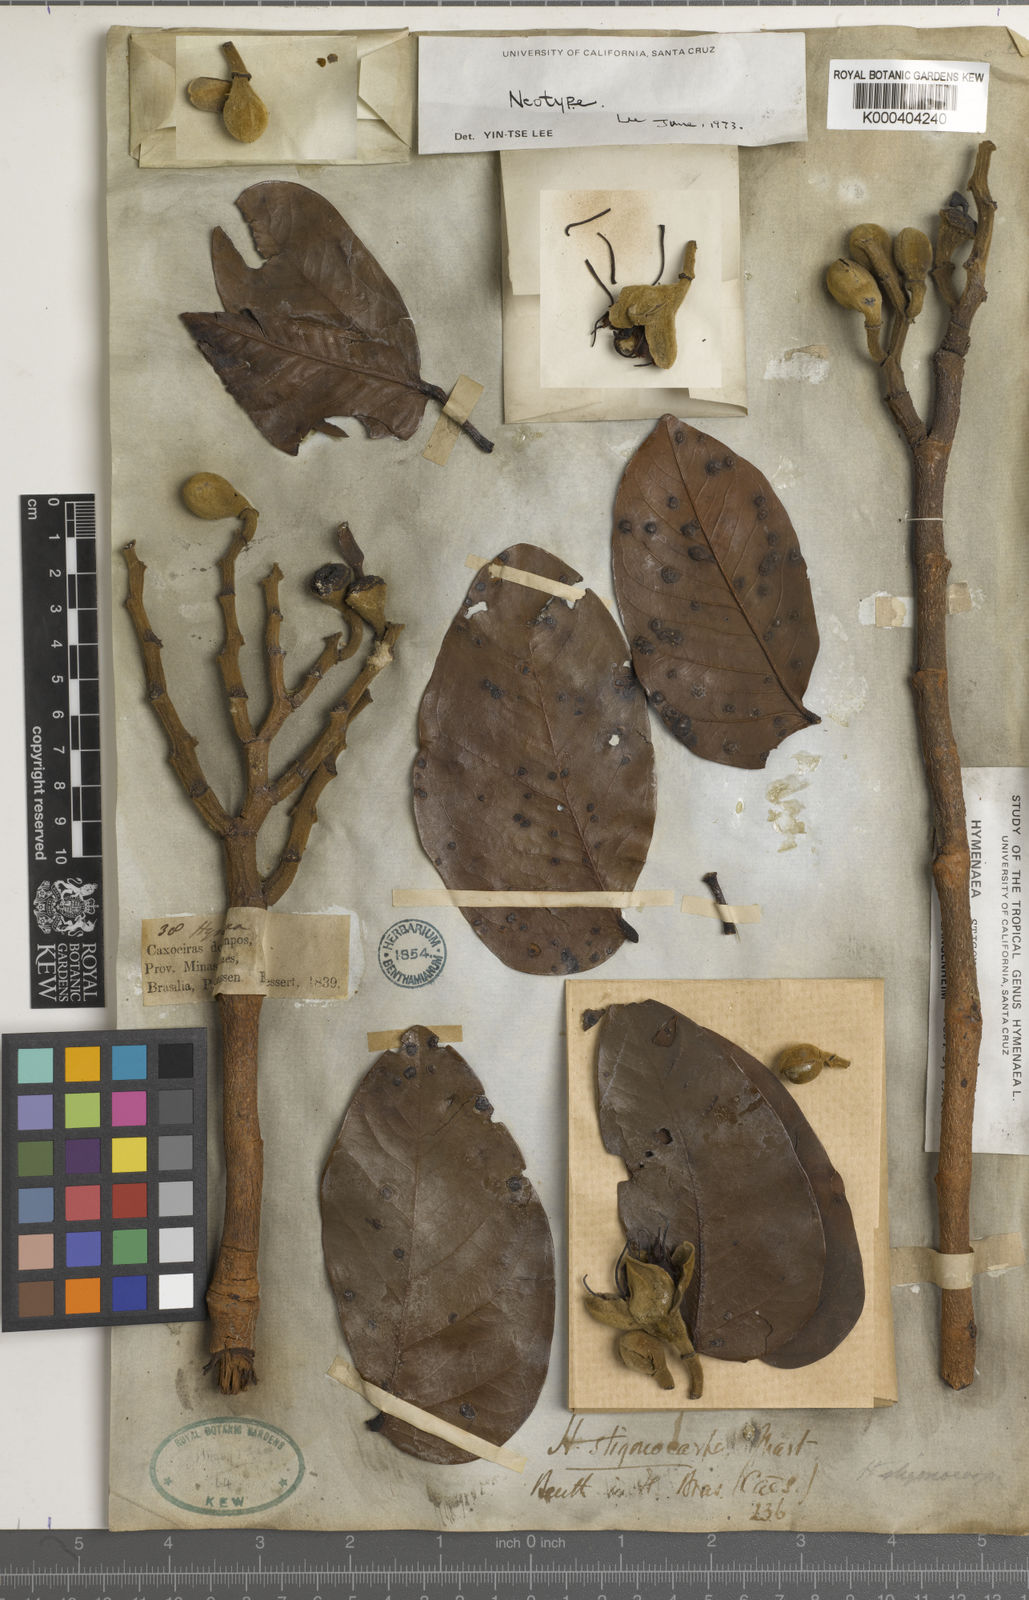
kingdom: Plantae
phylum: Tracheophyta
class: Magnoliopsida
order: Fabales
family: Fabaceae
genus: Hymenaea
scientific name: Hymenaea
